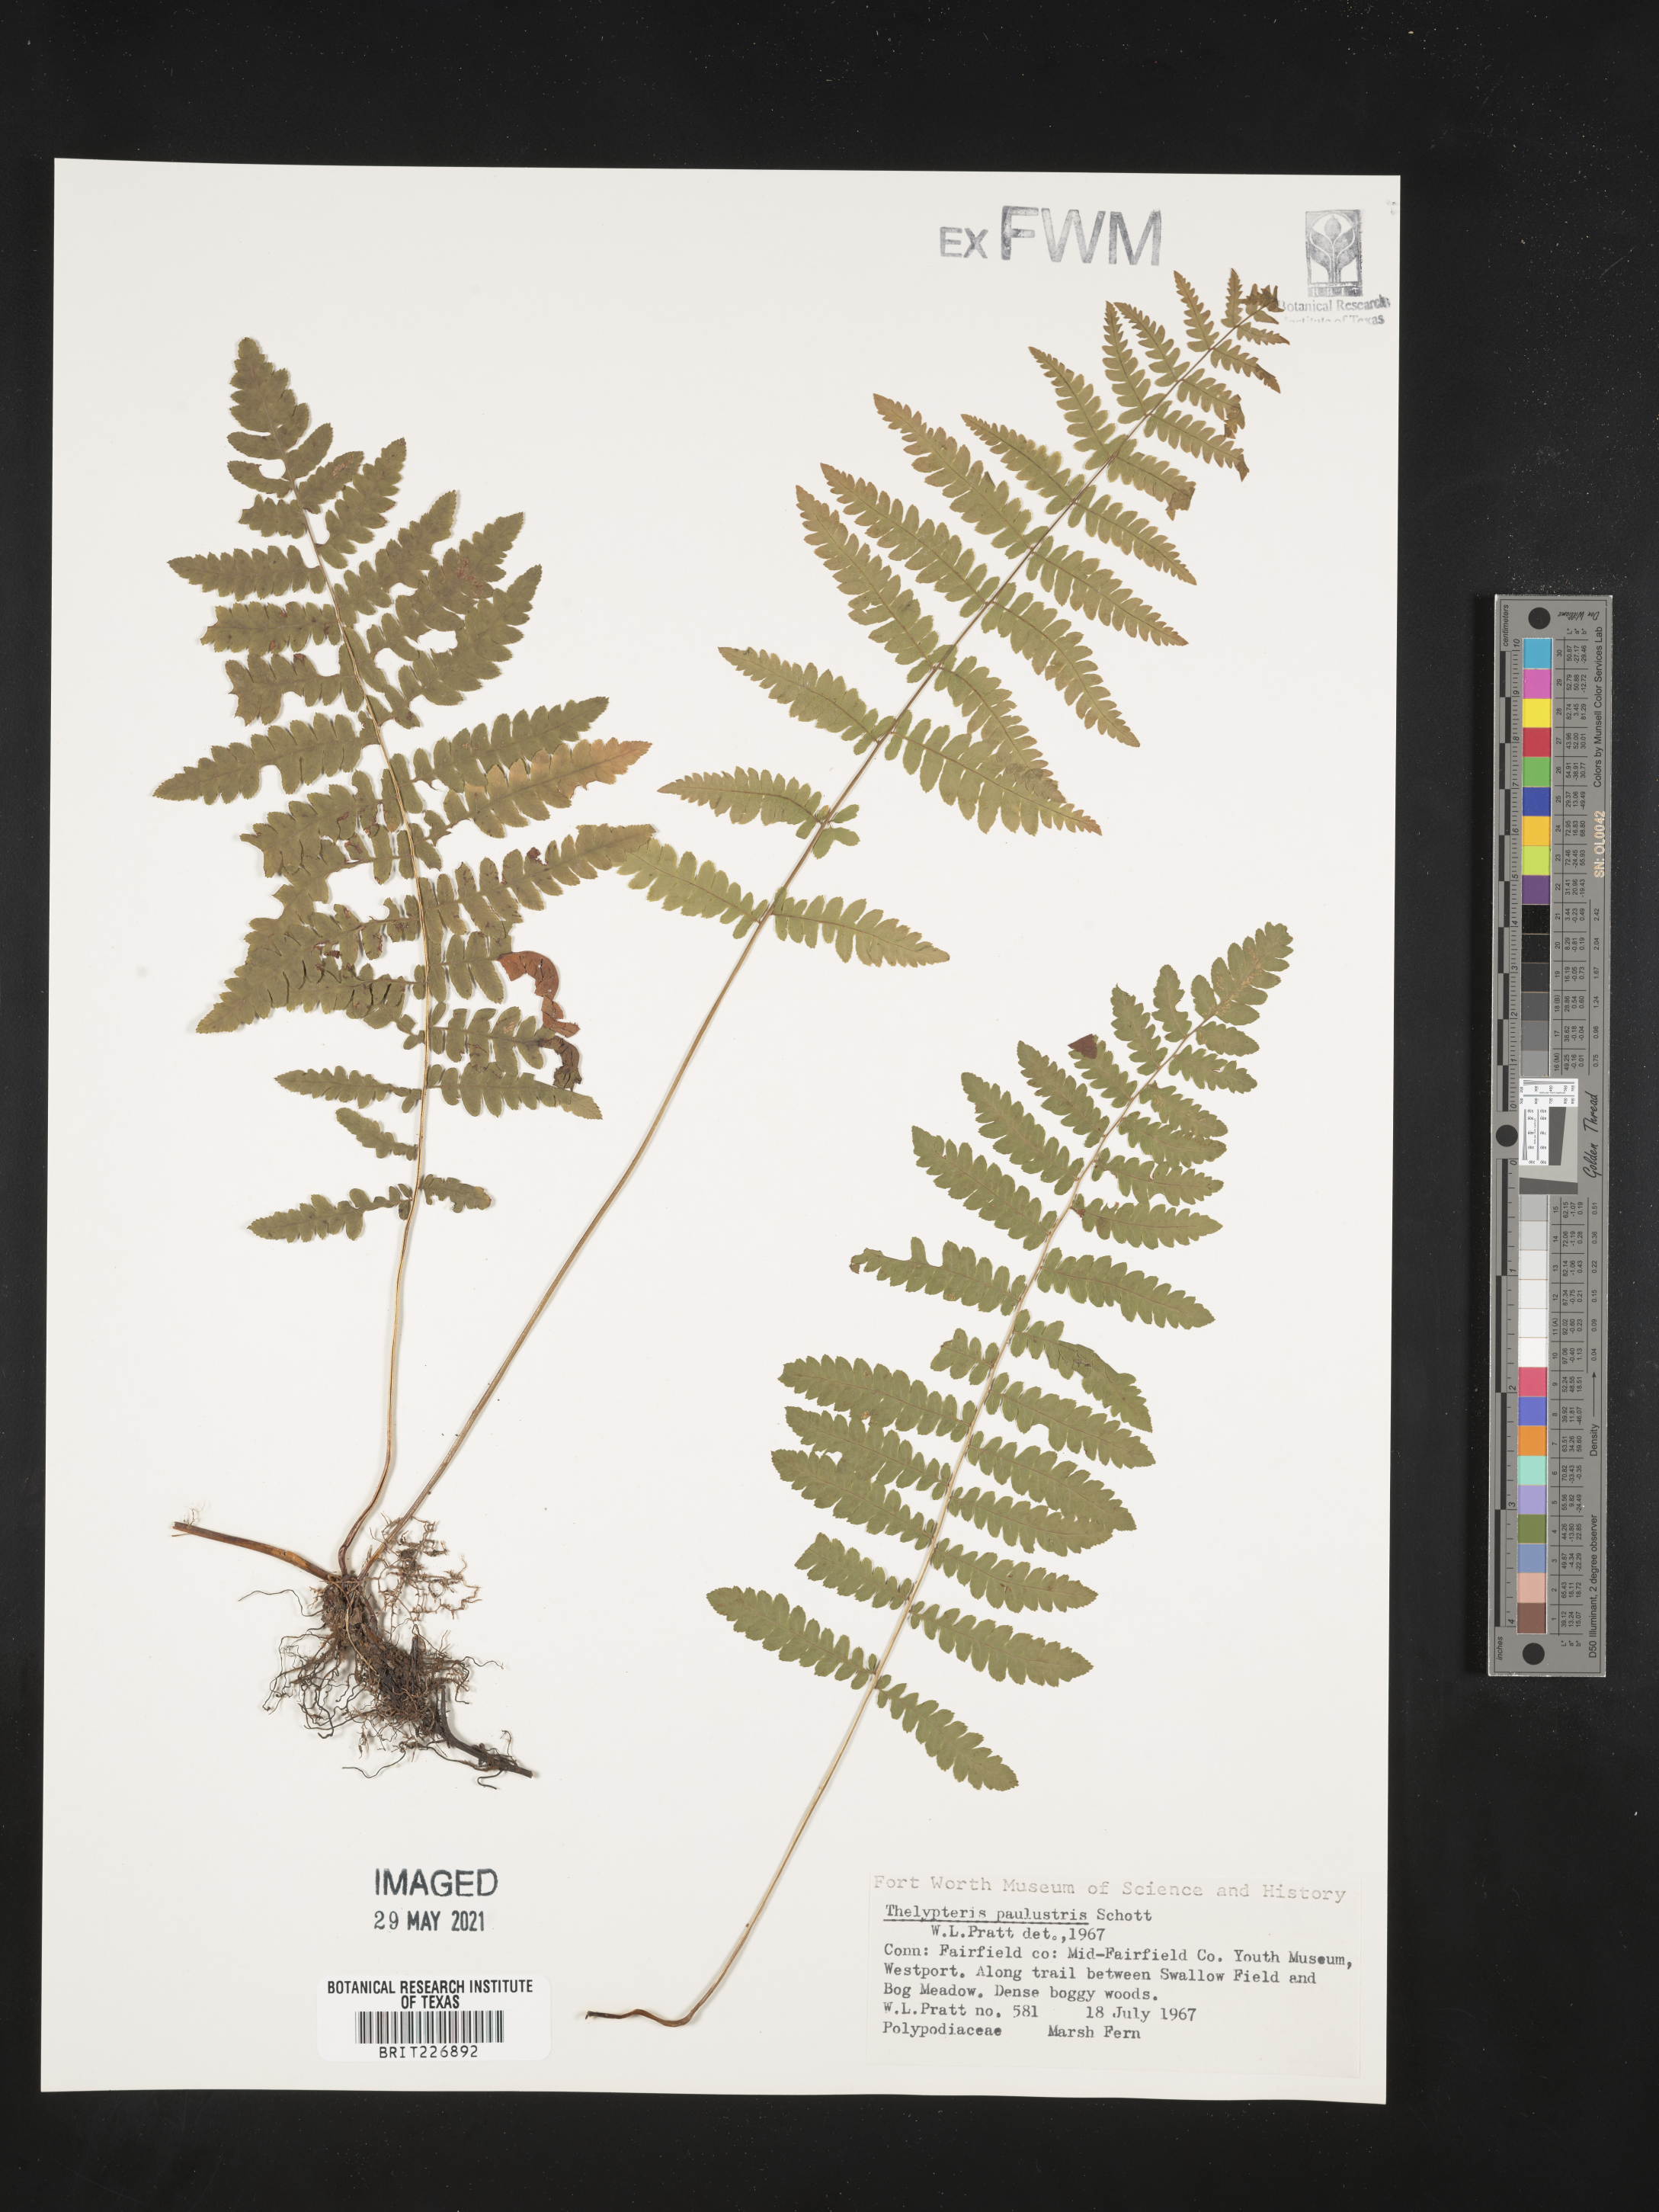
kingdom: Plantae
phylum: Tracheophyta
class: Polypodiopsida
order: Polypodiales
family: Thelypteridaceae
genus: Thelypteris
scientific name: Thelypteris palustris
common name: Marsh fern
